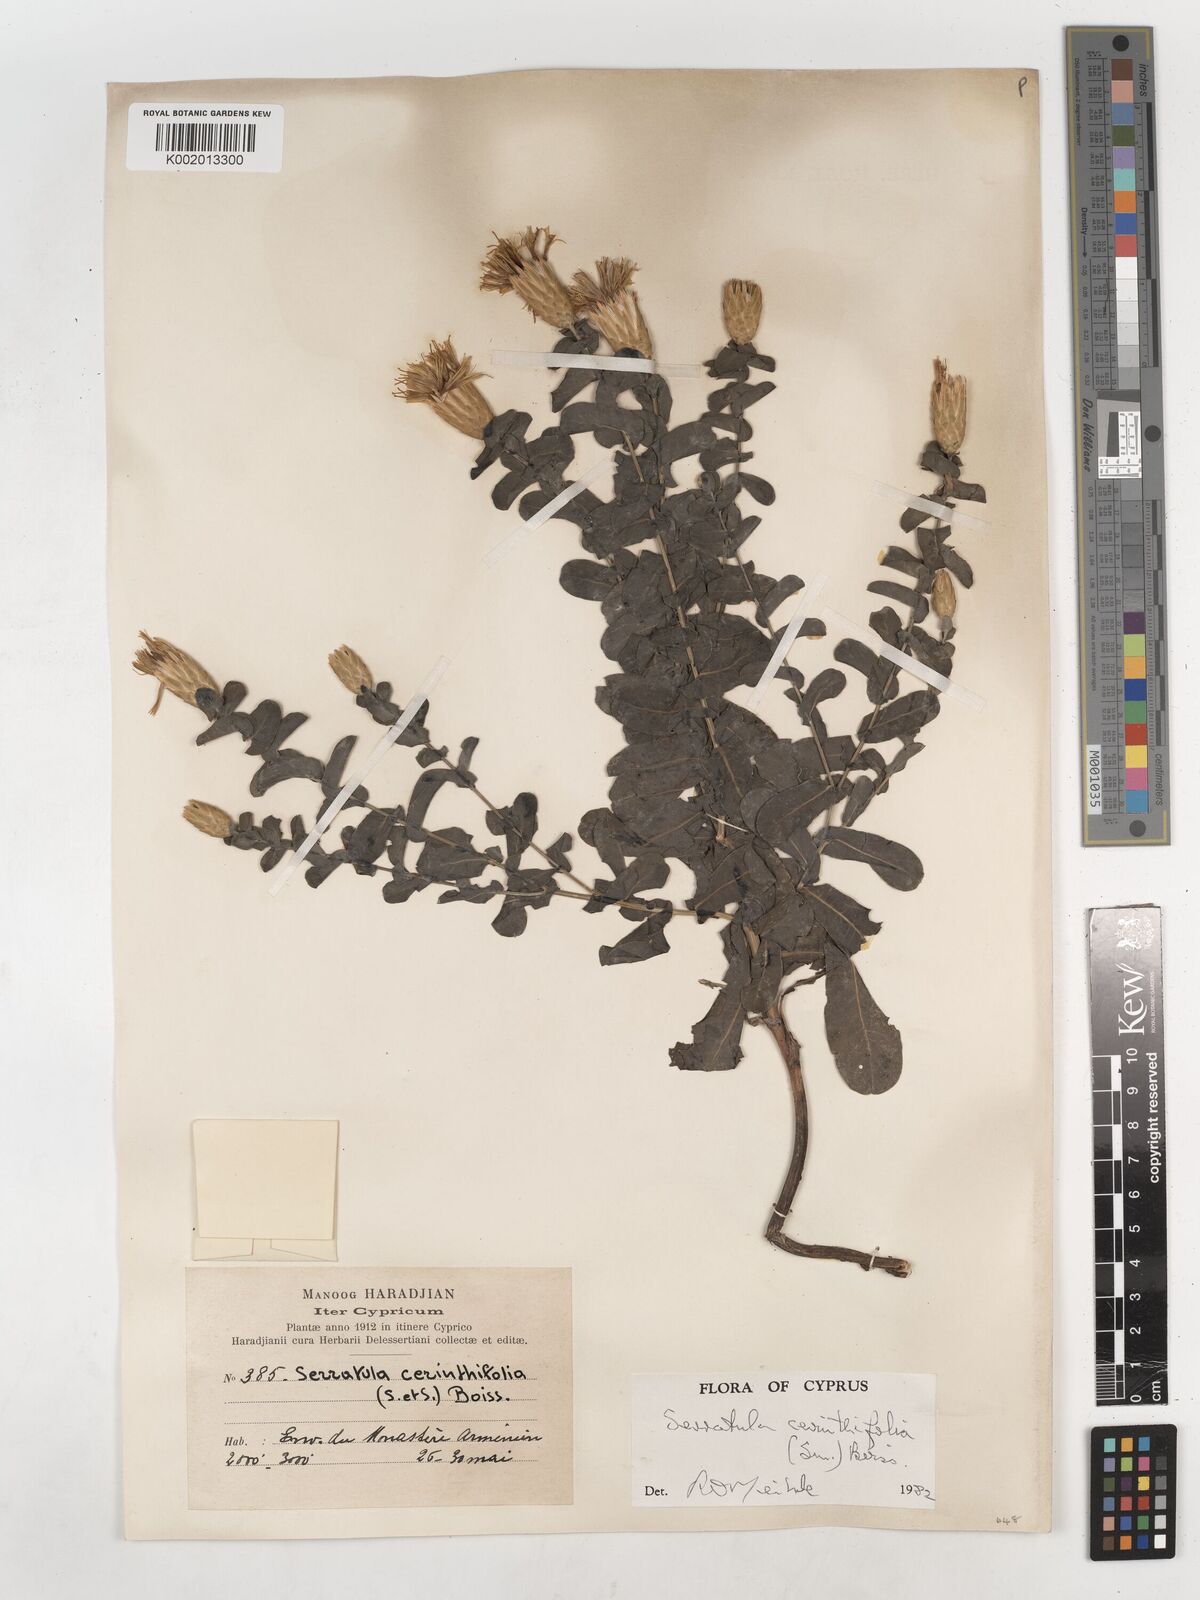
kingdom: Plantae
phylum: Tracheophyta
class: Magnoliopsida
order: Asterales
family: Asteraceae
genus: Klasea
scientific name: Klasea cerinthifolia
